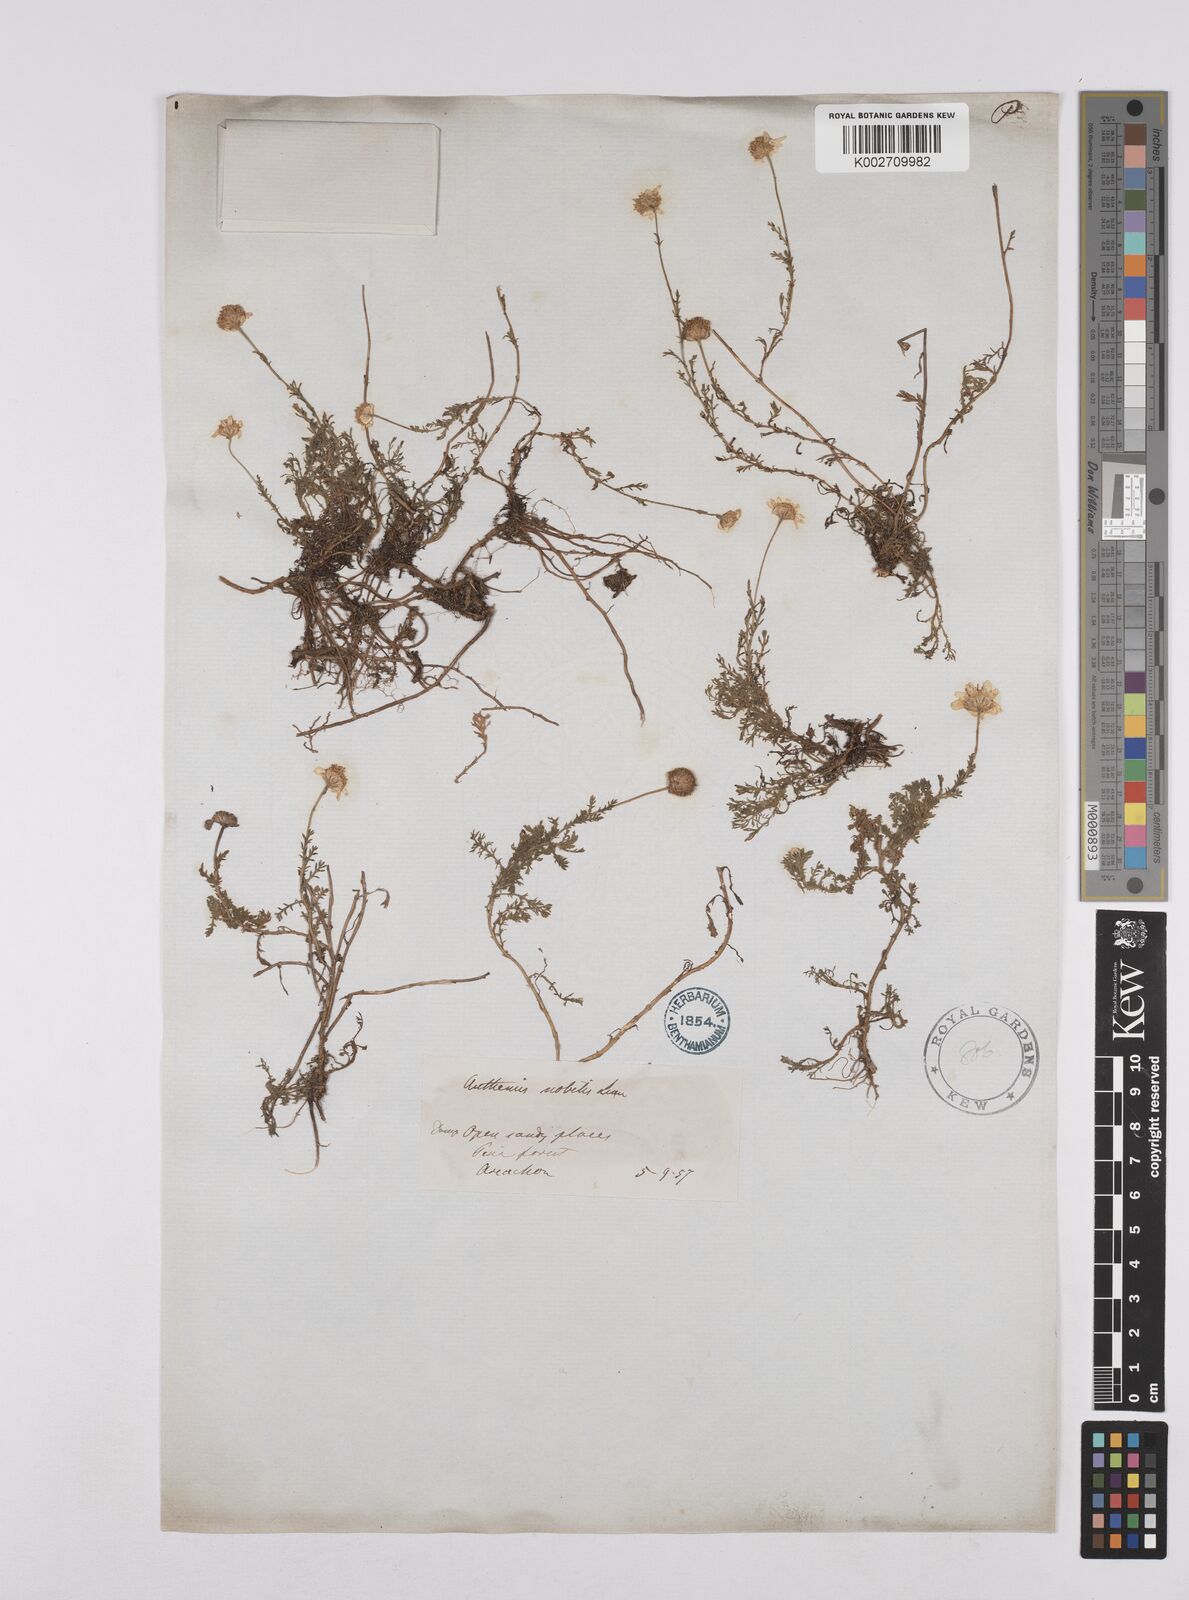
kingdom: Plantae
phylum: Tracheophyta
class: Magnoliopsida
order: Asterales
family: Asteraceae
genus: Chamaemelum
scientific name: Chamaemelum nobile
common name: Roman chamomile
